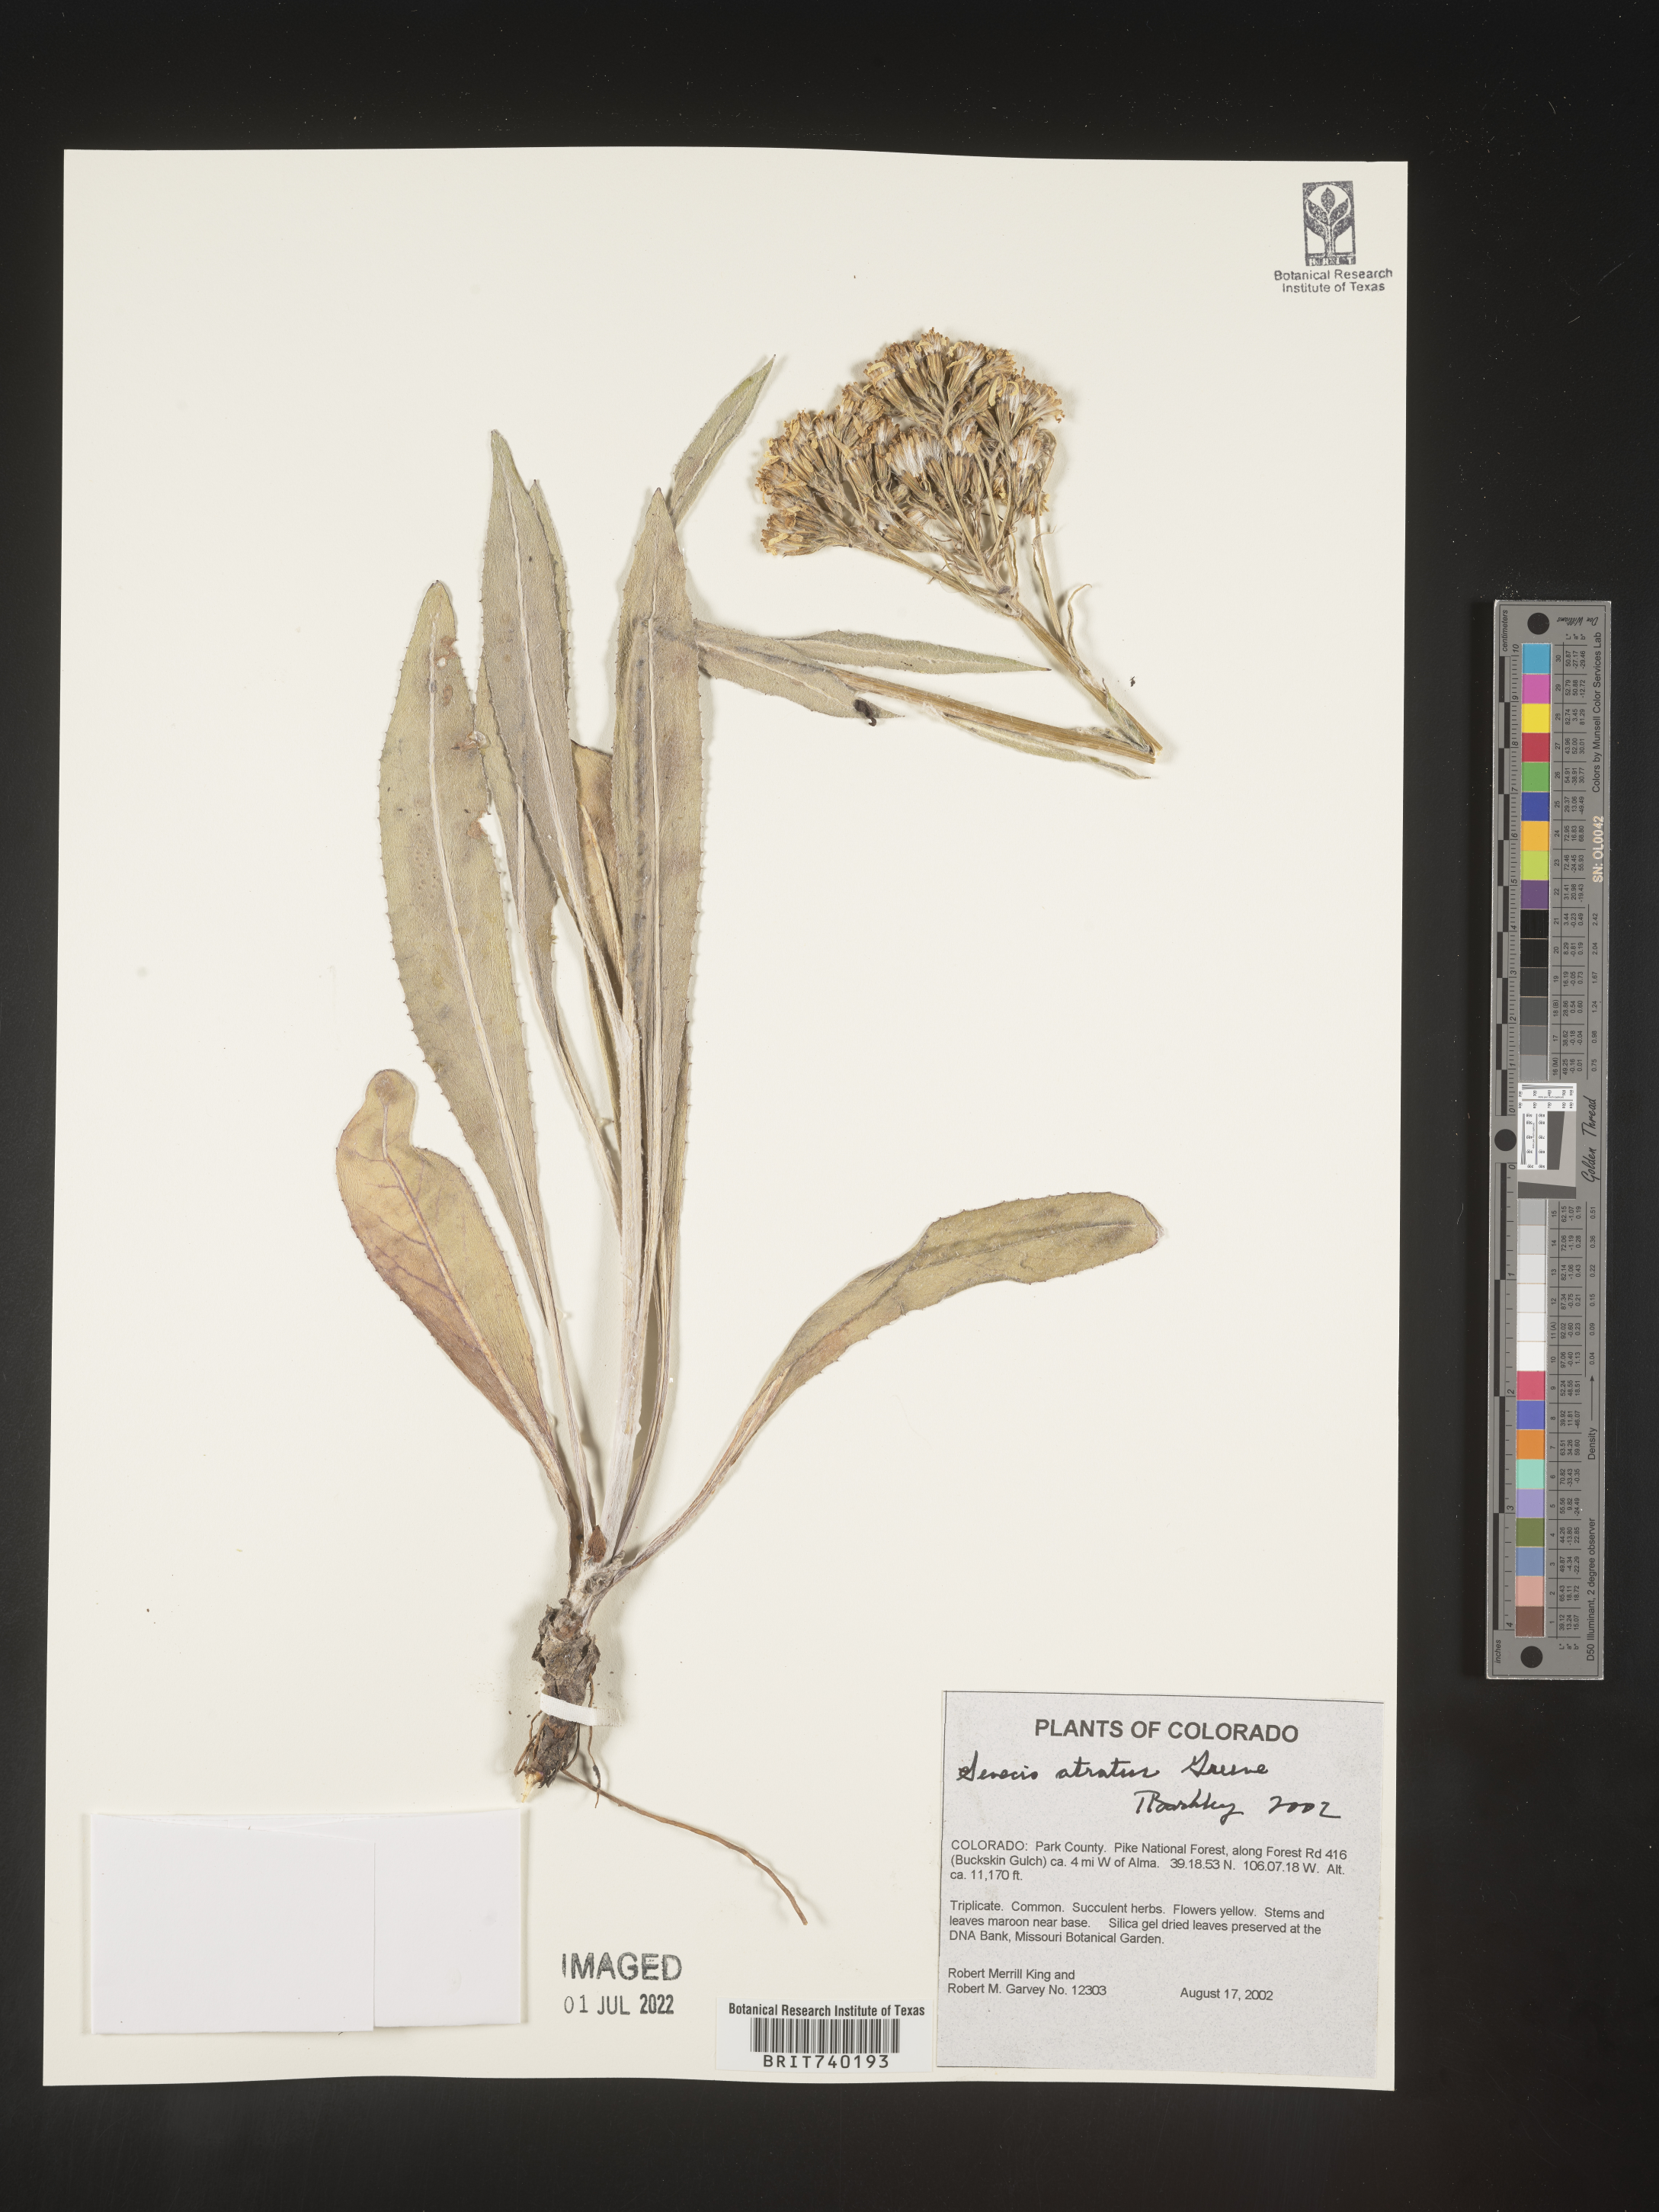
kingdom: Plantae
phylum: Tracheophyta
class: Magnoliopsida
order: Asterales
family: Asteraceae
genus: Senecio
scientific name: Senecio atratus
